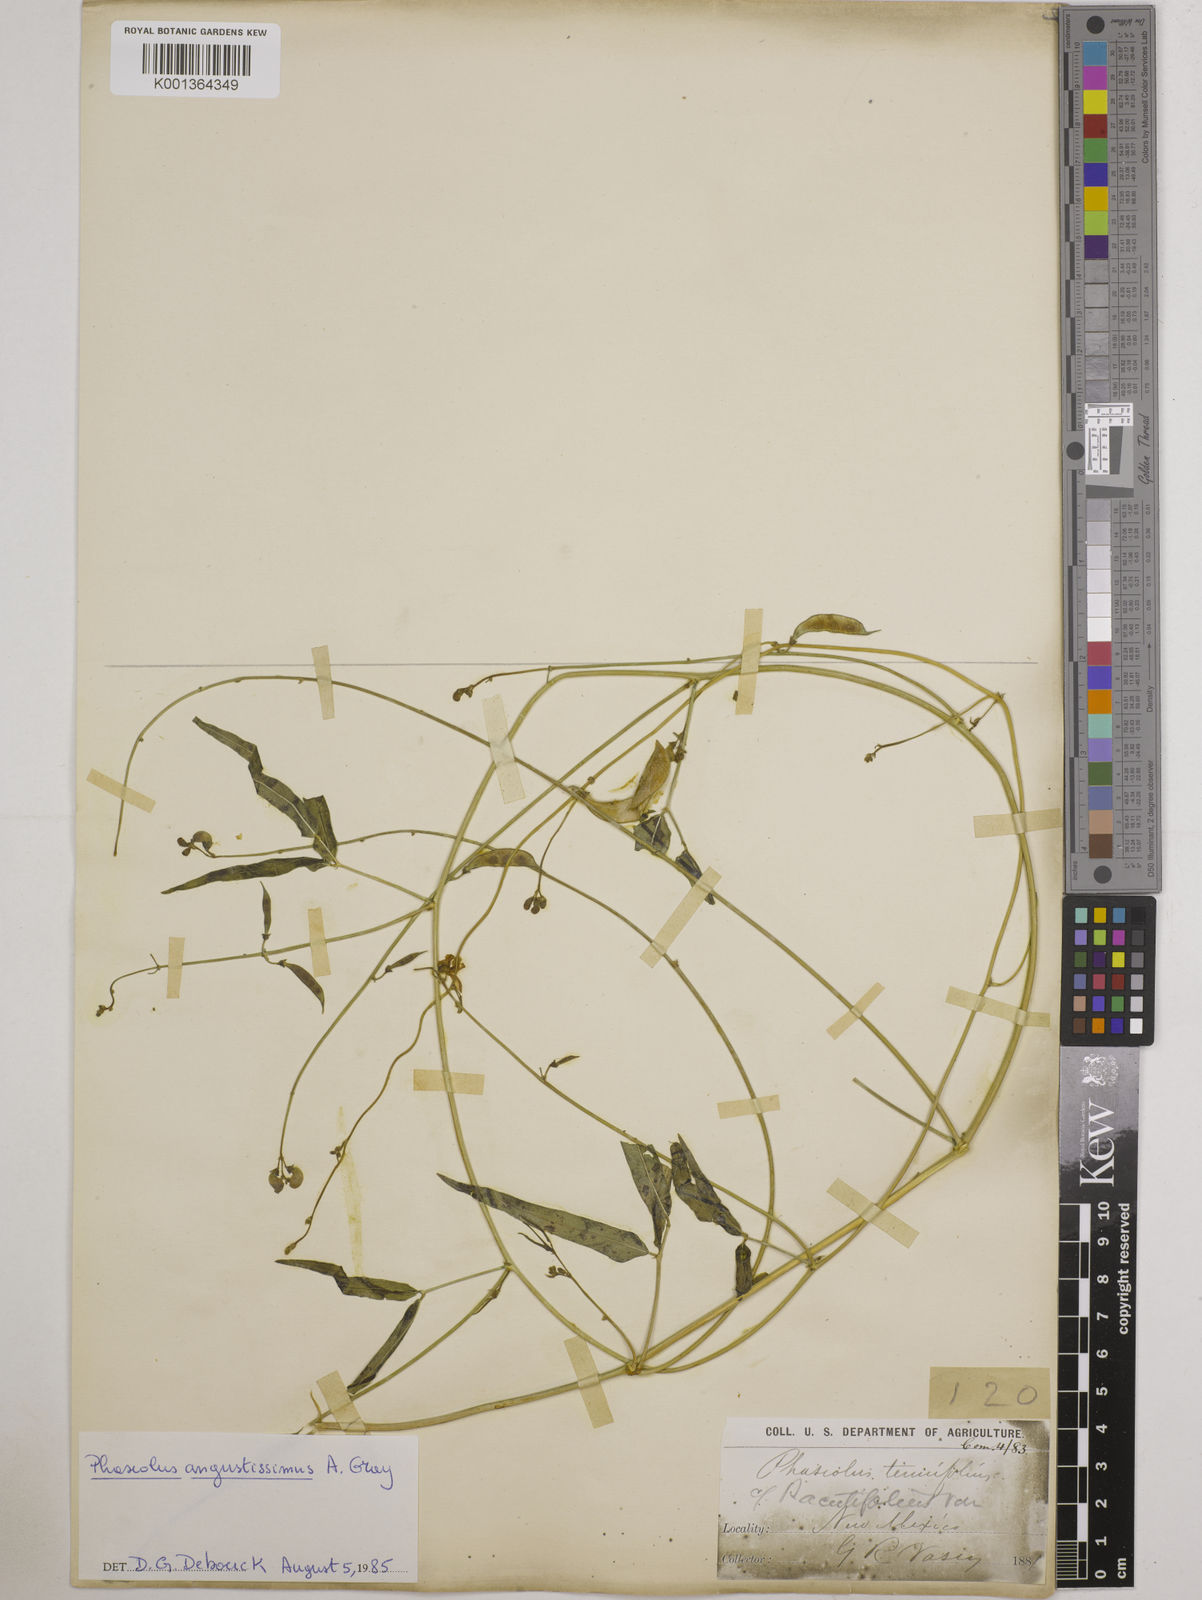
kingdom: Plantae
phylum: Tracheophyta
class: Magnoliopsida
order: Fabales
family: Fabaceae
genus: Phaseolus
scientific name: Phaseolus angustissimus
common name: Slimleaf bean
